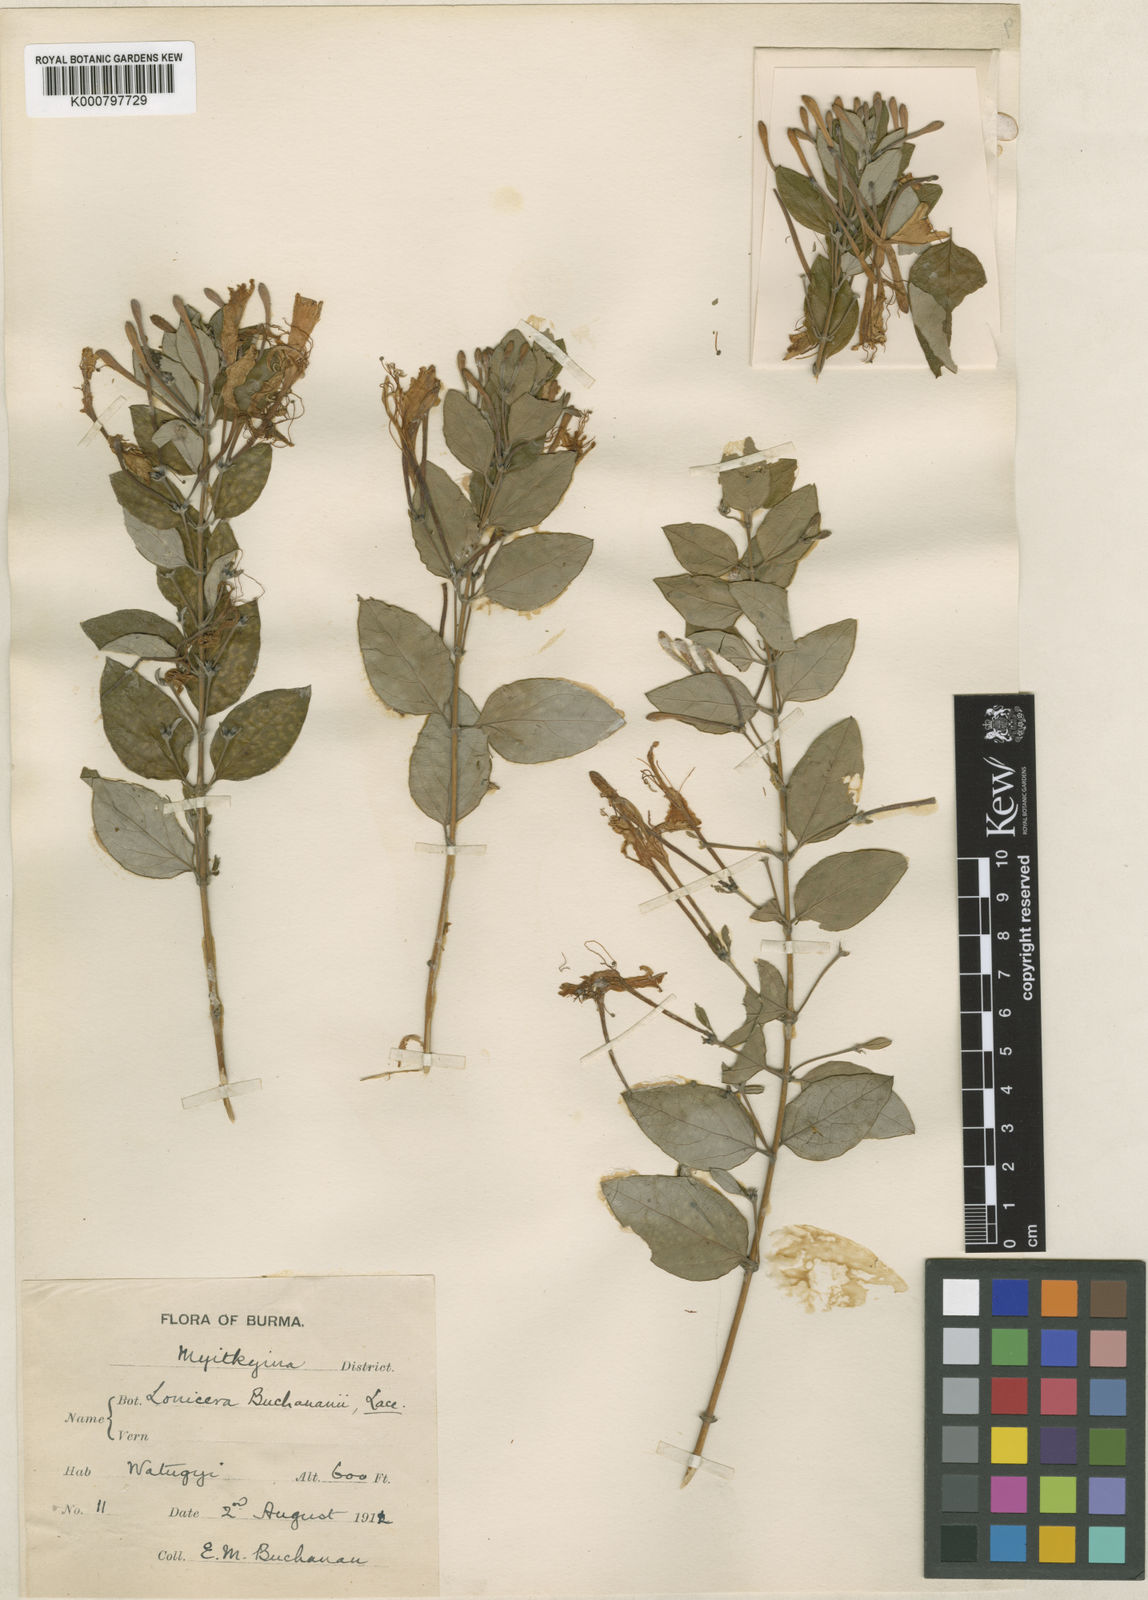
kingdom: Plantae
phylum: Tracheophyta
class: Magnoliopsida
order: Dipsacales
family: Caprifoliaceae
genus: Lonicera
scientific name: Lonicera similis
